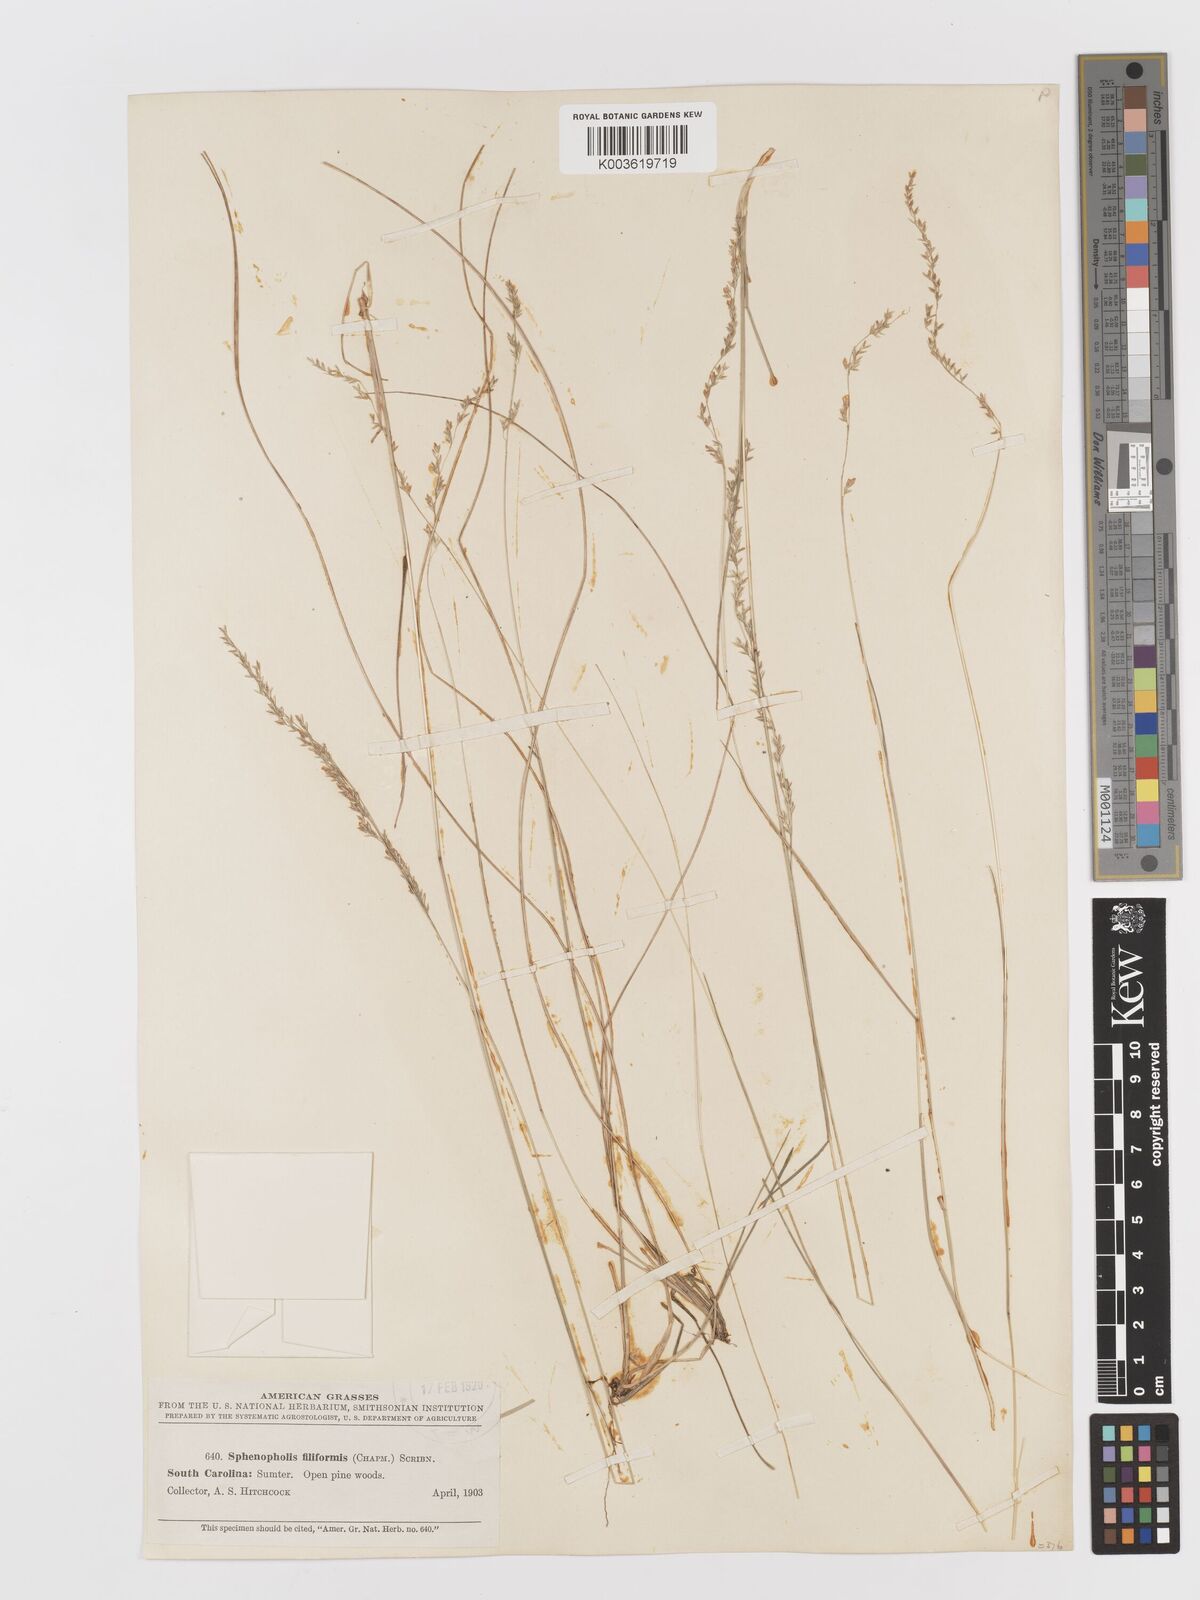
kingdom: Plantae
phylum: Tracheophyta
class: Liliopsida
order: Poales
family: Poaceae
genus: Sphenopholis
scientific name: Sphenopholis filiformis
